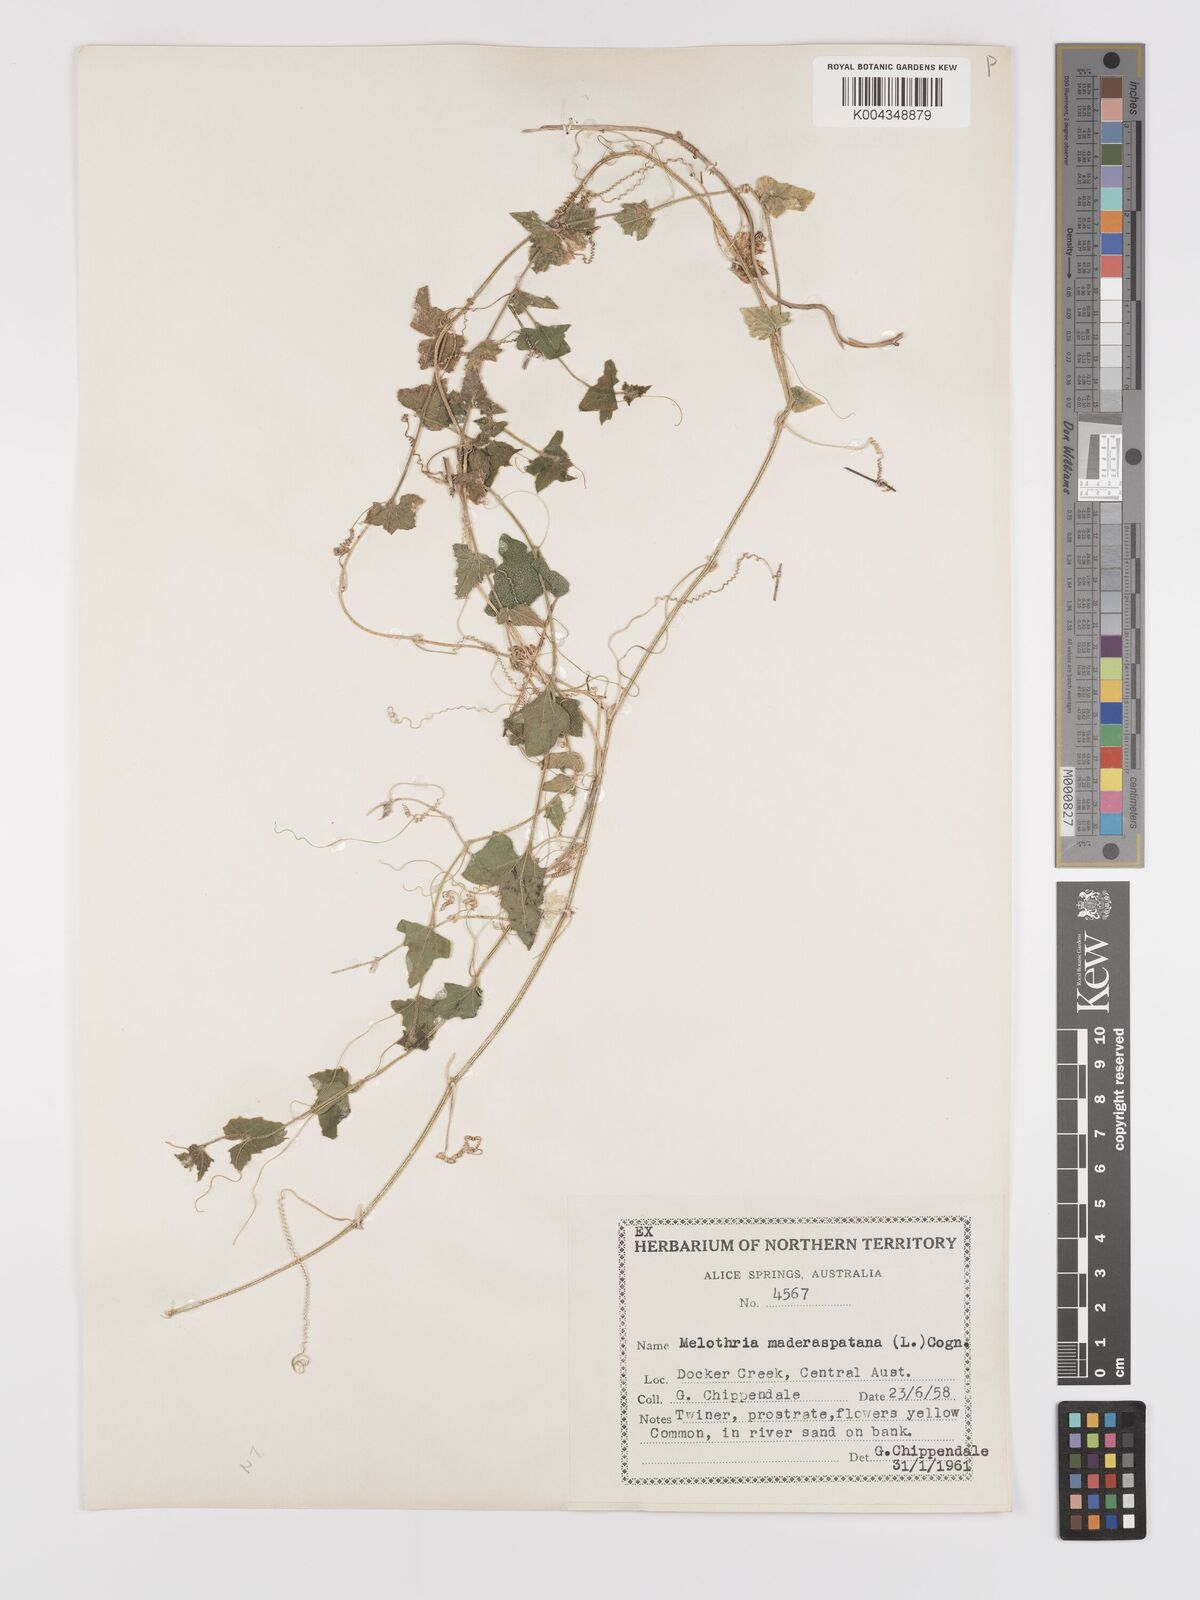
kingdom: Animalia
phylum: Arthropoda
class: Insecta
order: Lepidoptera
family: Crambidae
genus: Mukia
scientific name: Mukia
